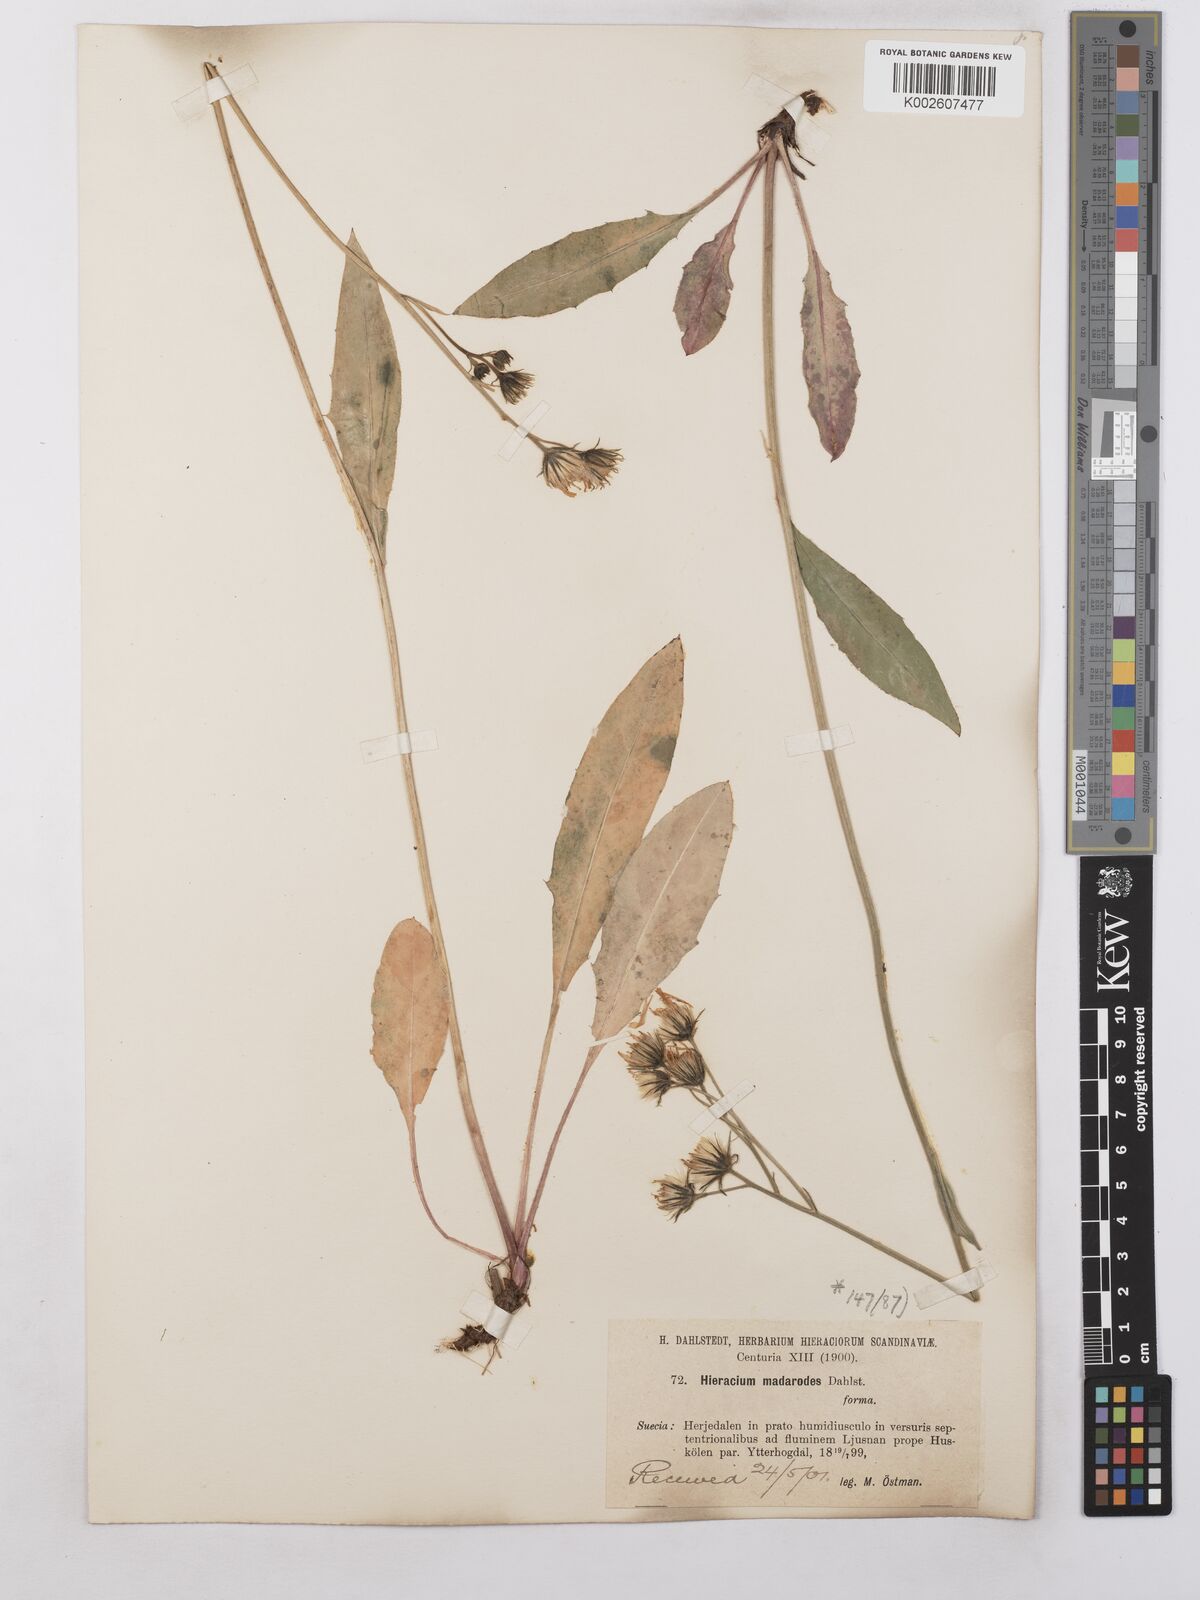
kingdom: Plantae
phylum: Tracheophyta
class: Magnoliopsida
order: Asterales
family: Asteraceae
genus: Hieracium
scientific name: Hieracium caesium
